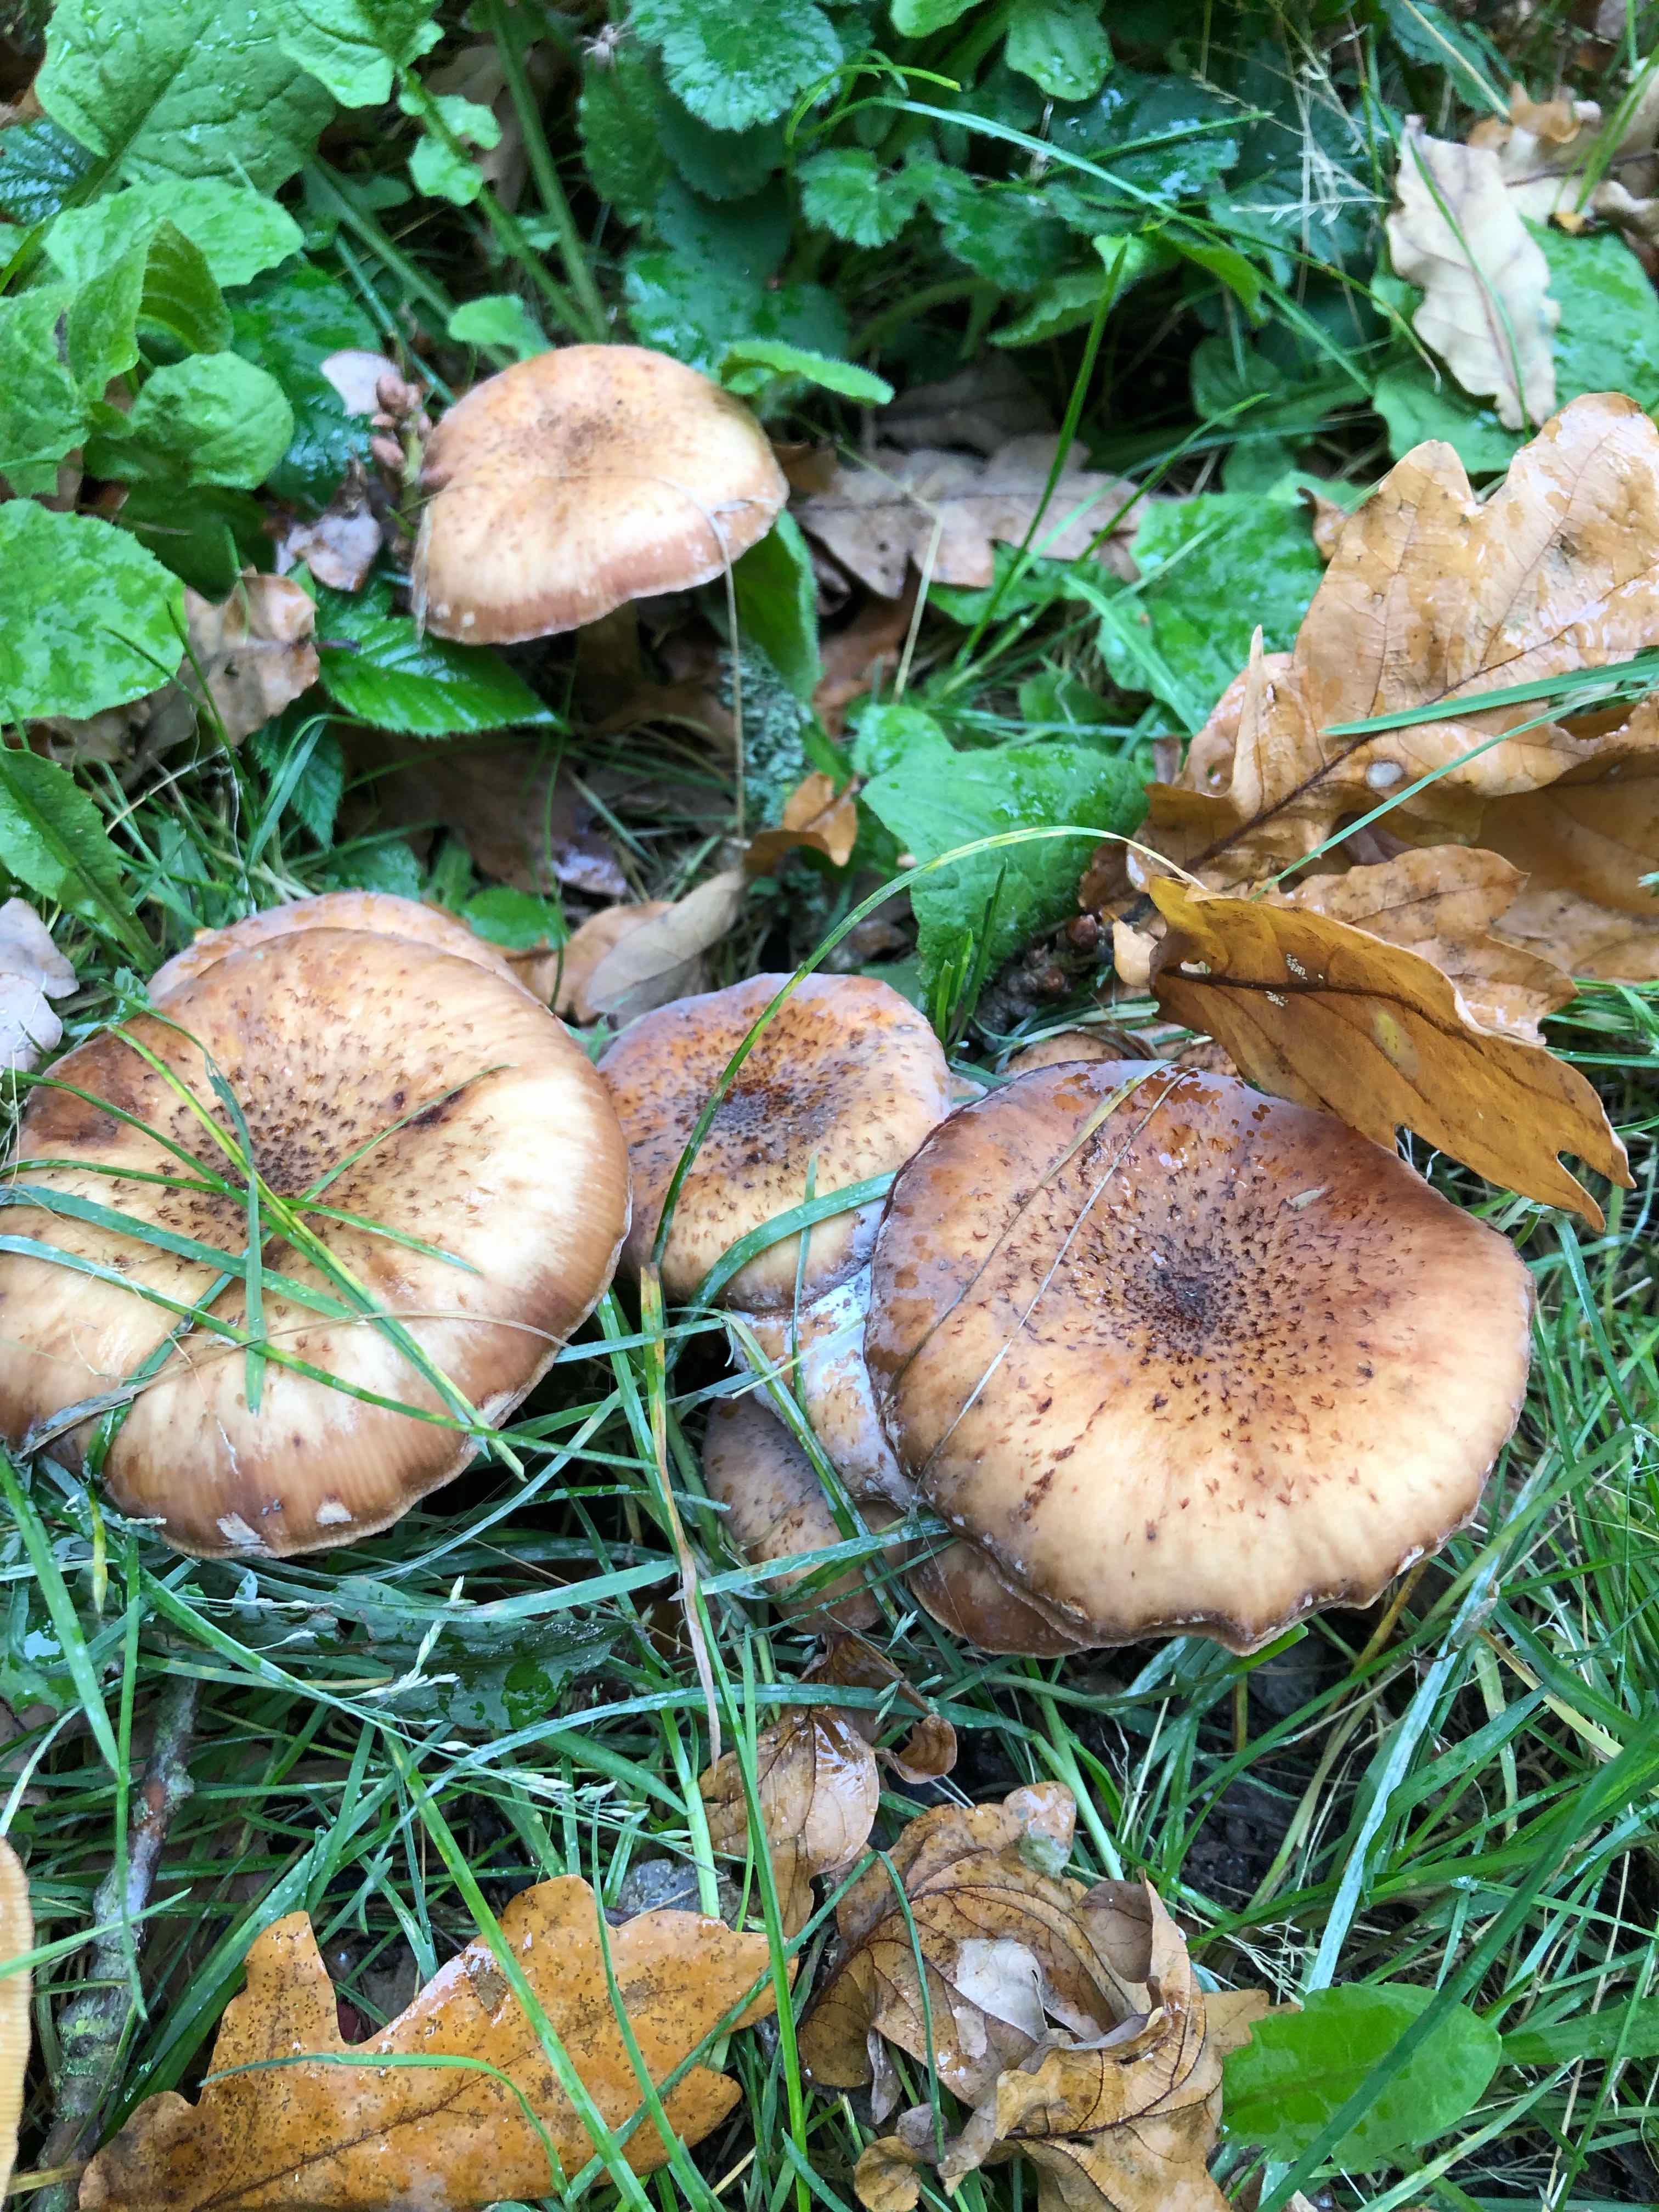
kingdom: Fungi
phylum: Basidiomycota
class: Agaricomycetes
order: Agaricales
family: Physalacriaceae
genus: Armillaria
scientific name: Armillaria lutea
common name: køllestokket honningsvamp
